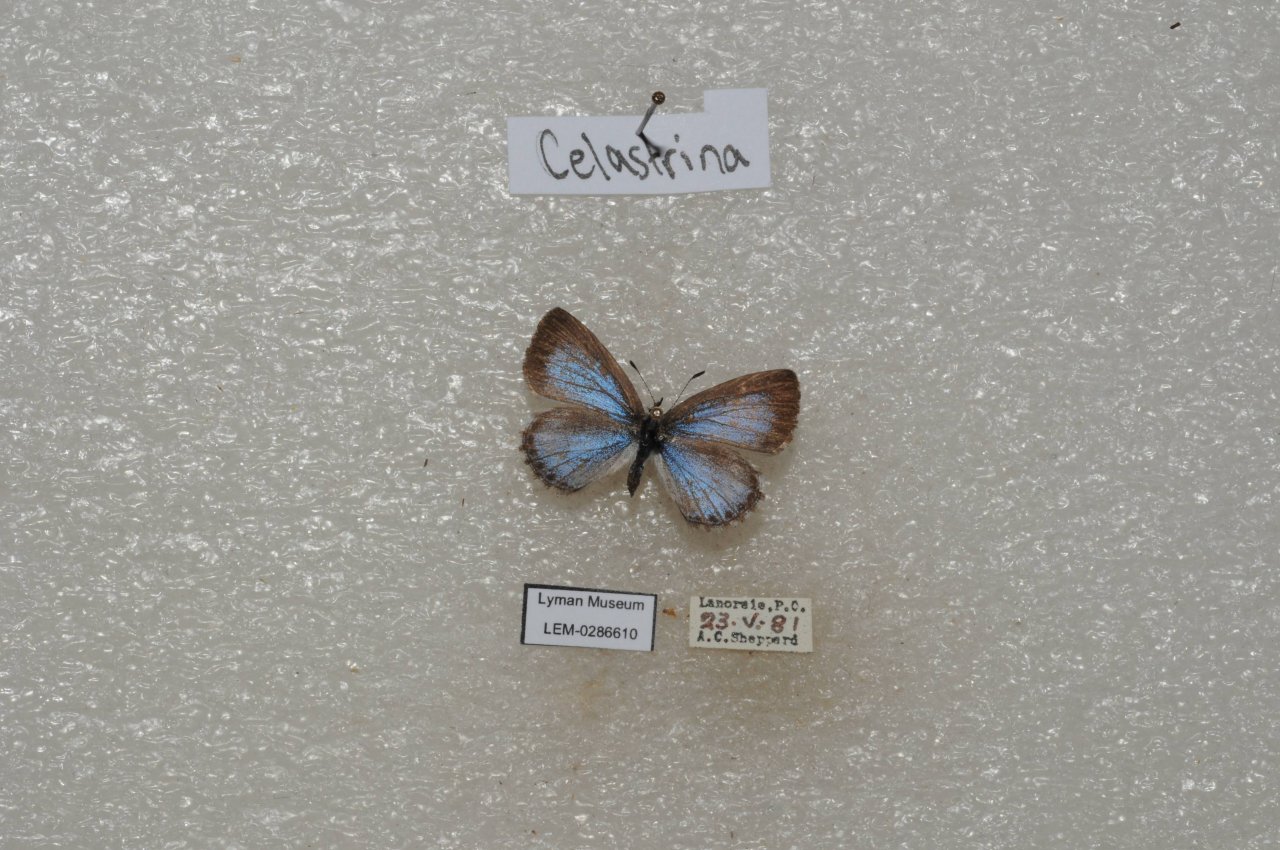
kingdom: Animalia
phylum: Arthropoda
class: Insecta
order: Lepidoptera
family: Lycaenidae
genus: Celastrina
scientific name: Celastrina lucia
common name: Northern Spring Azure
